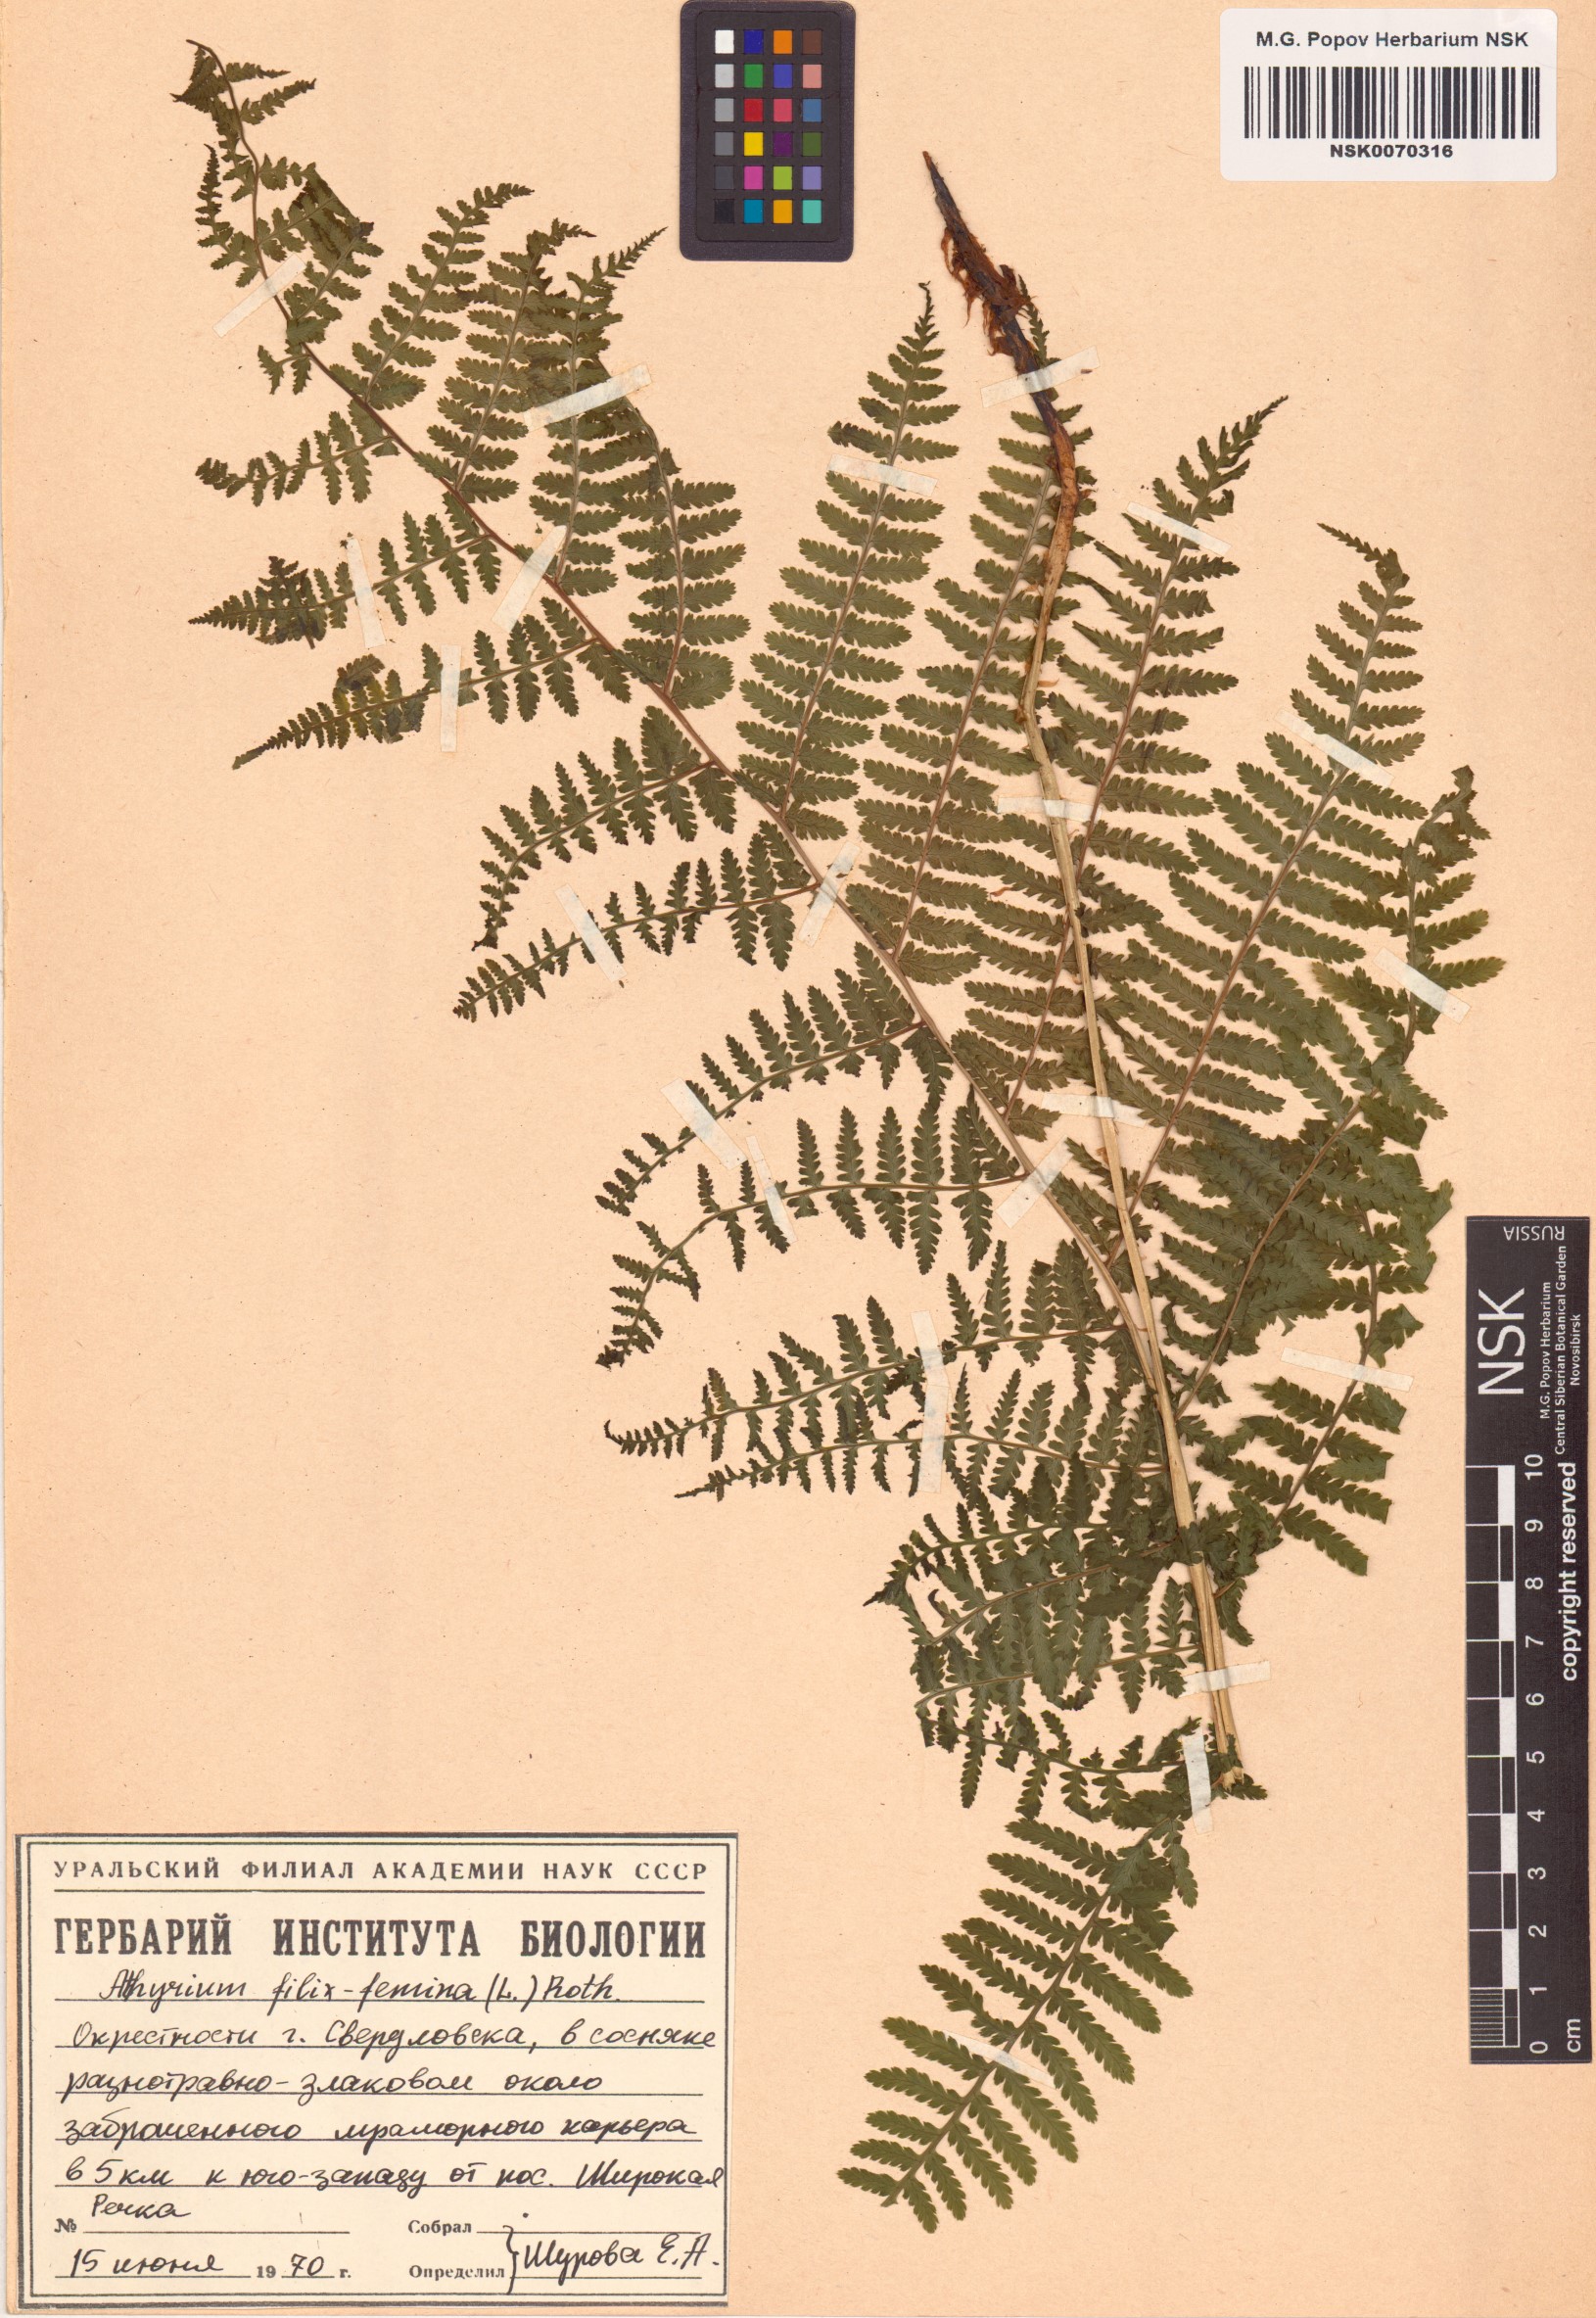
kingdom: Plantae
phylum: Tracheophyta
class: Polypodiopsida
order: Polypodiales
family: Athyriaceae
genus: Athyrium
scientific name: Athyrium filix-femina
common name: Lady fern
